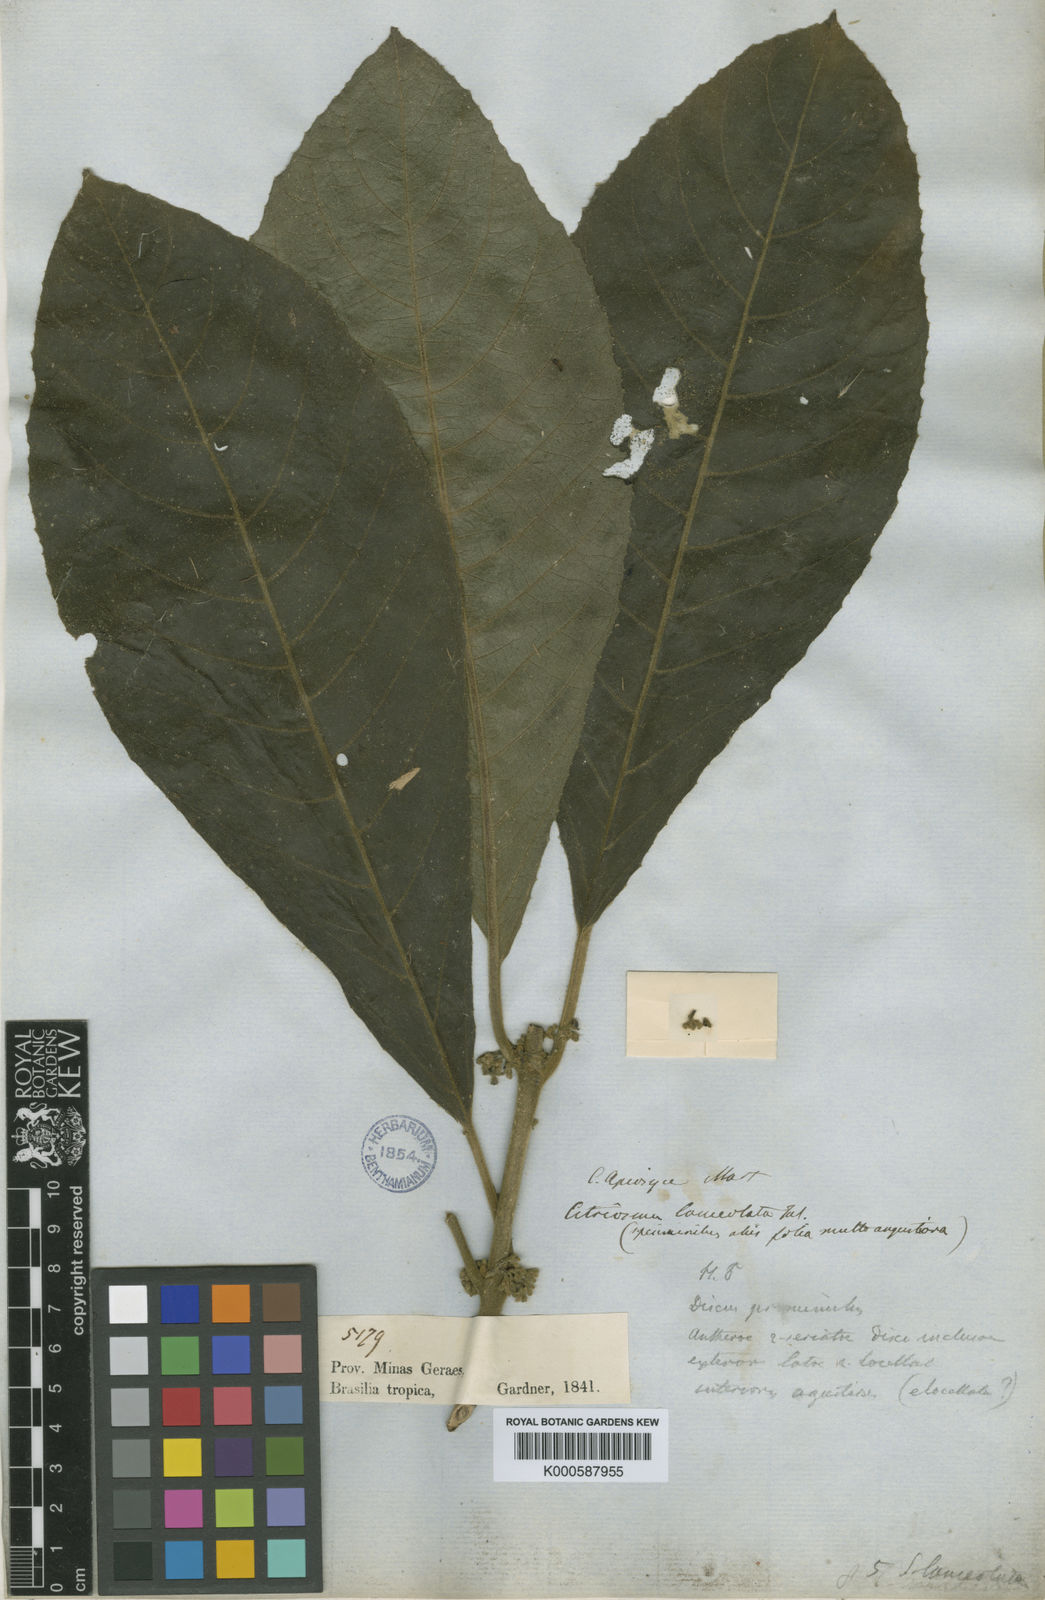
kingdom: Plantae
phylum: Tracheophyta
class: Magnoliopsida
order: Laurales
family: Siparunaceae
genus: Siparuna
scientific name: Siparuna brasiliensis
